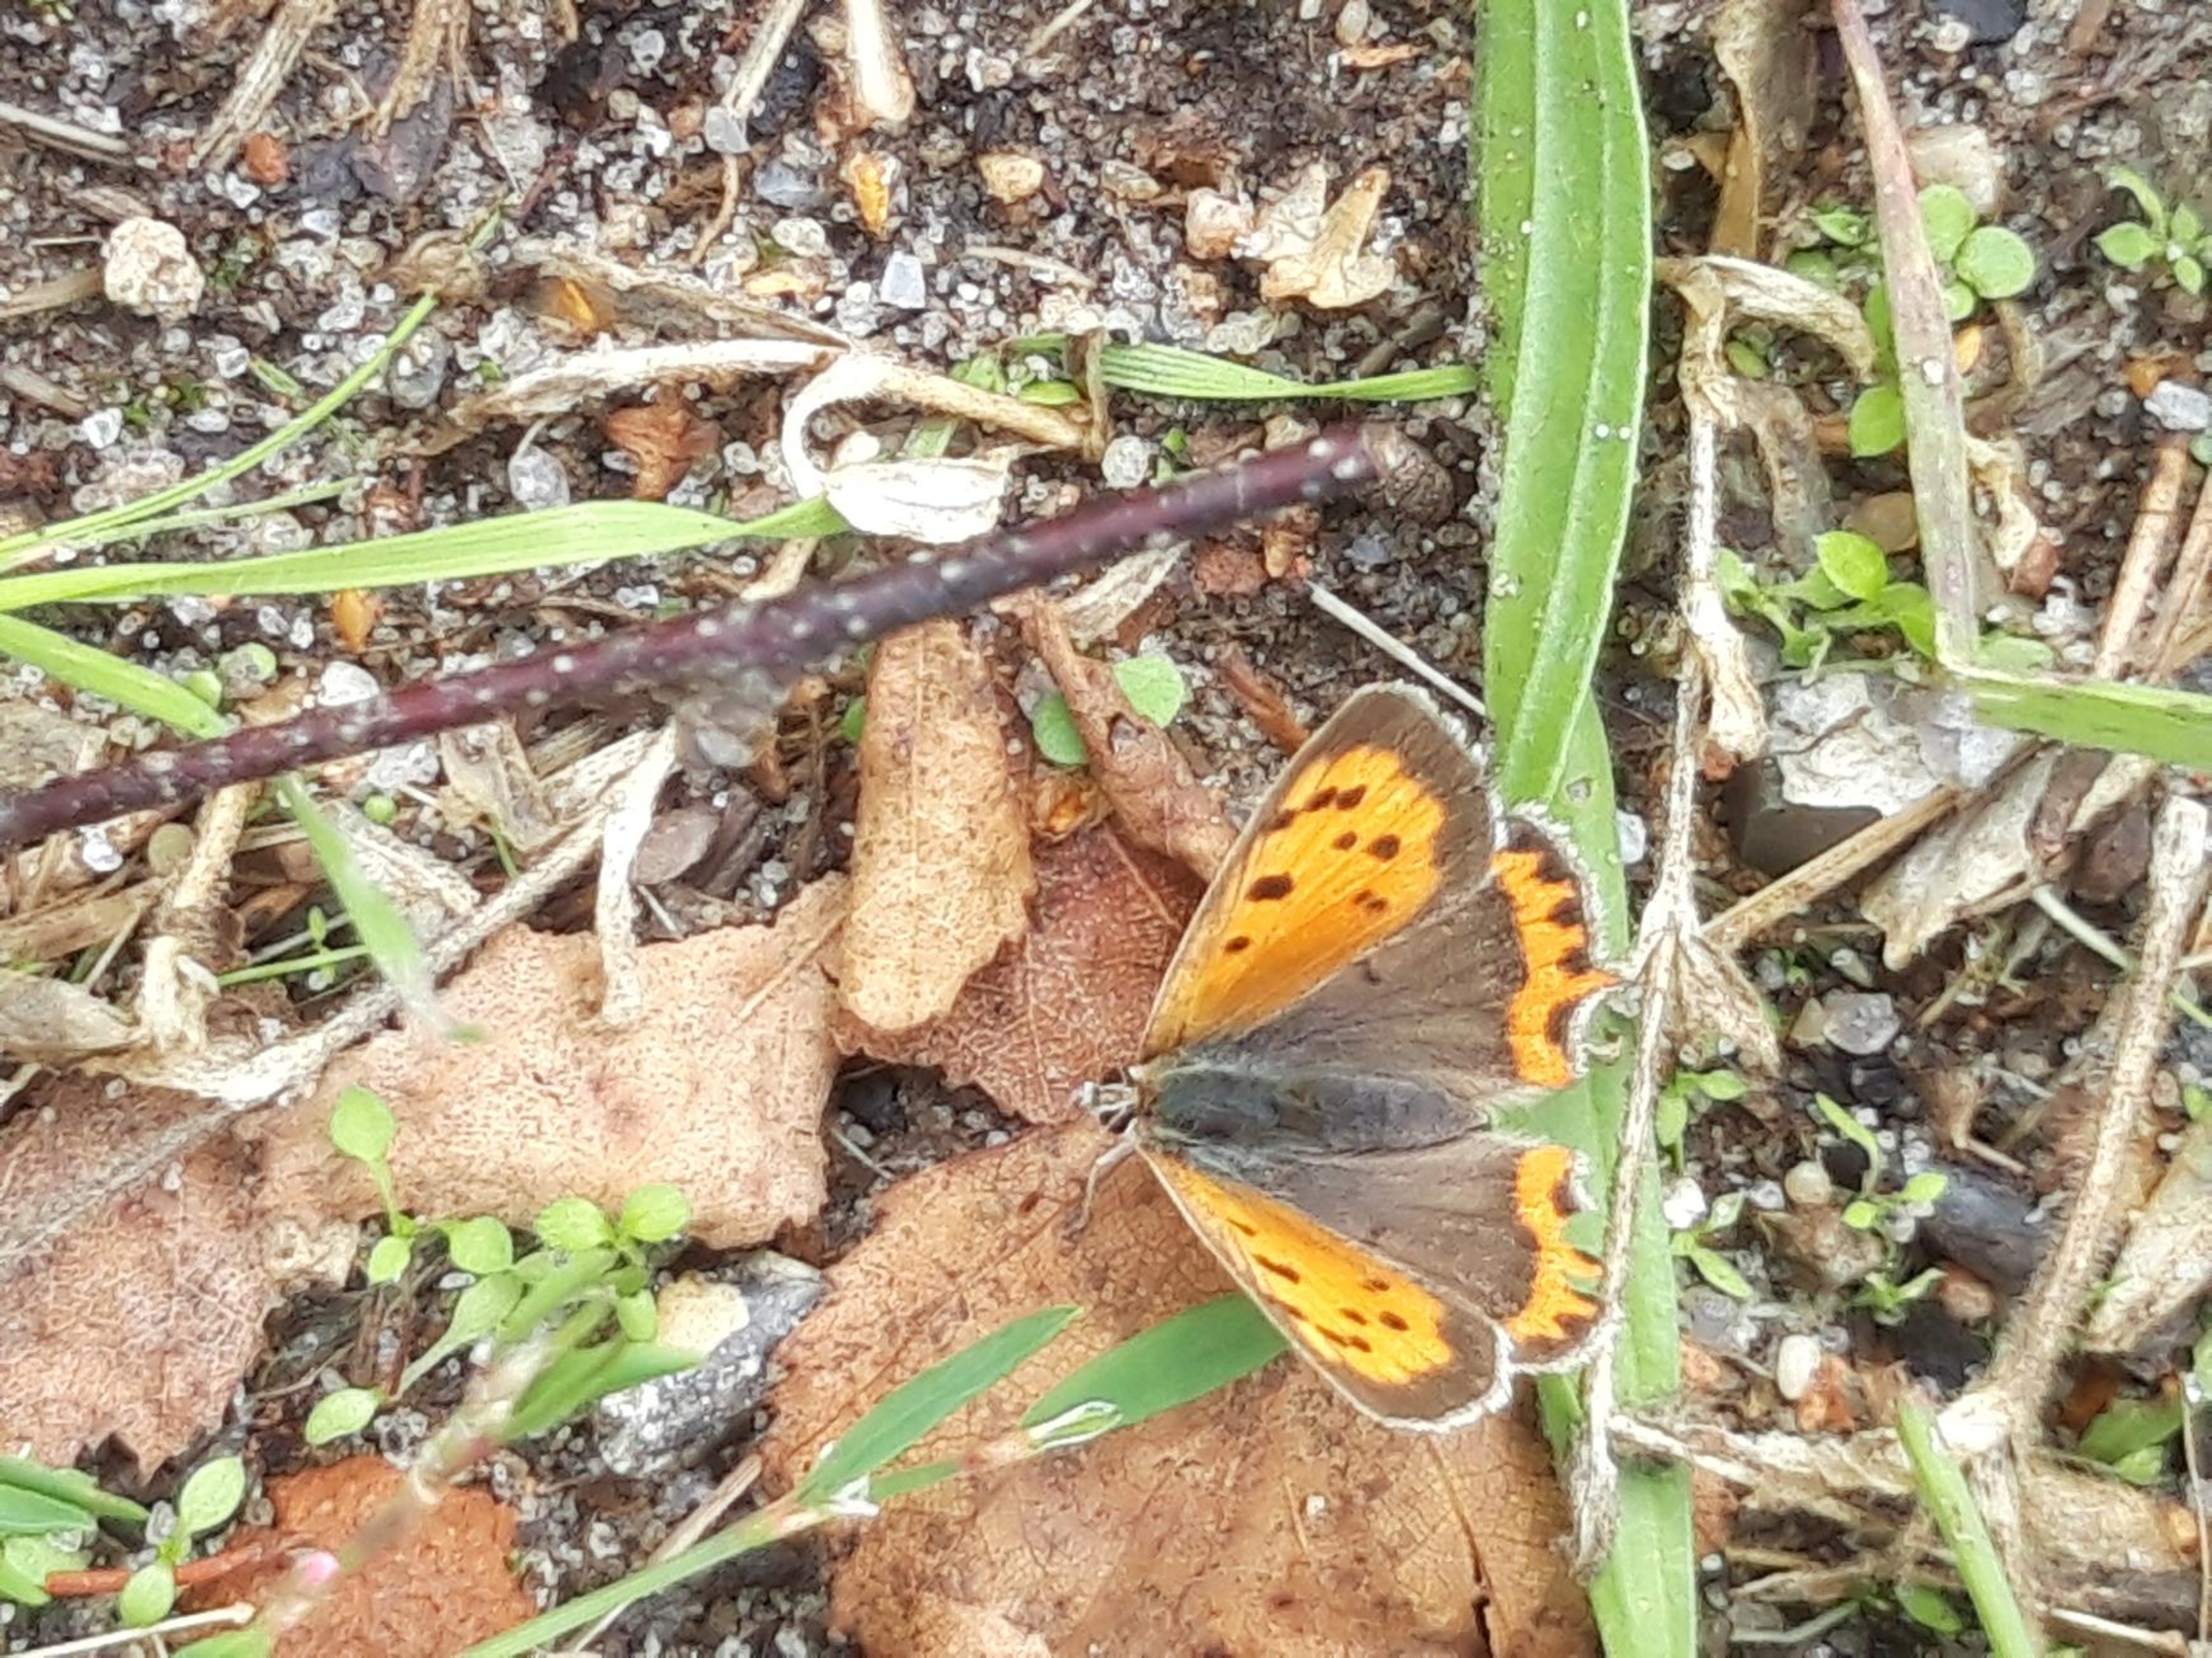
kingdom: Animalia
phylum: Arthropoda
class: Insecta
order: Lepidoptera
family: Lycaenidae
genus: Lycaena
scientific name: Lycaena phlaeas
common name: Lille ildfugl
